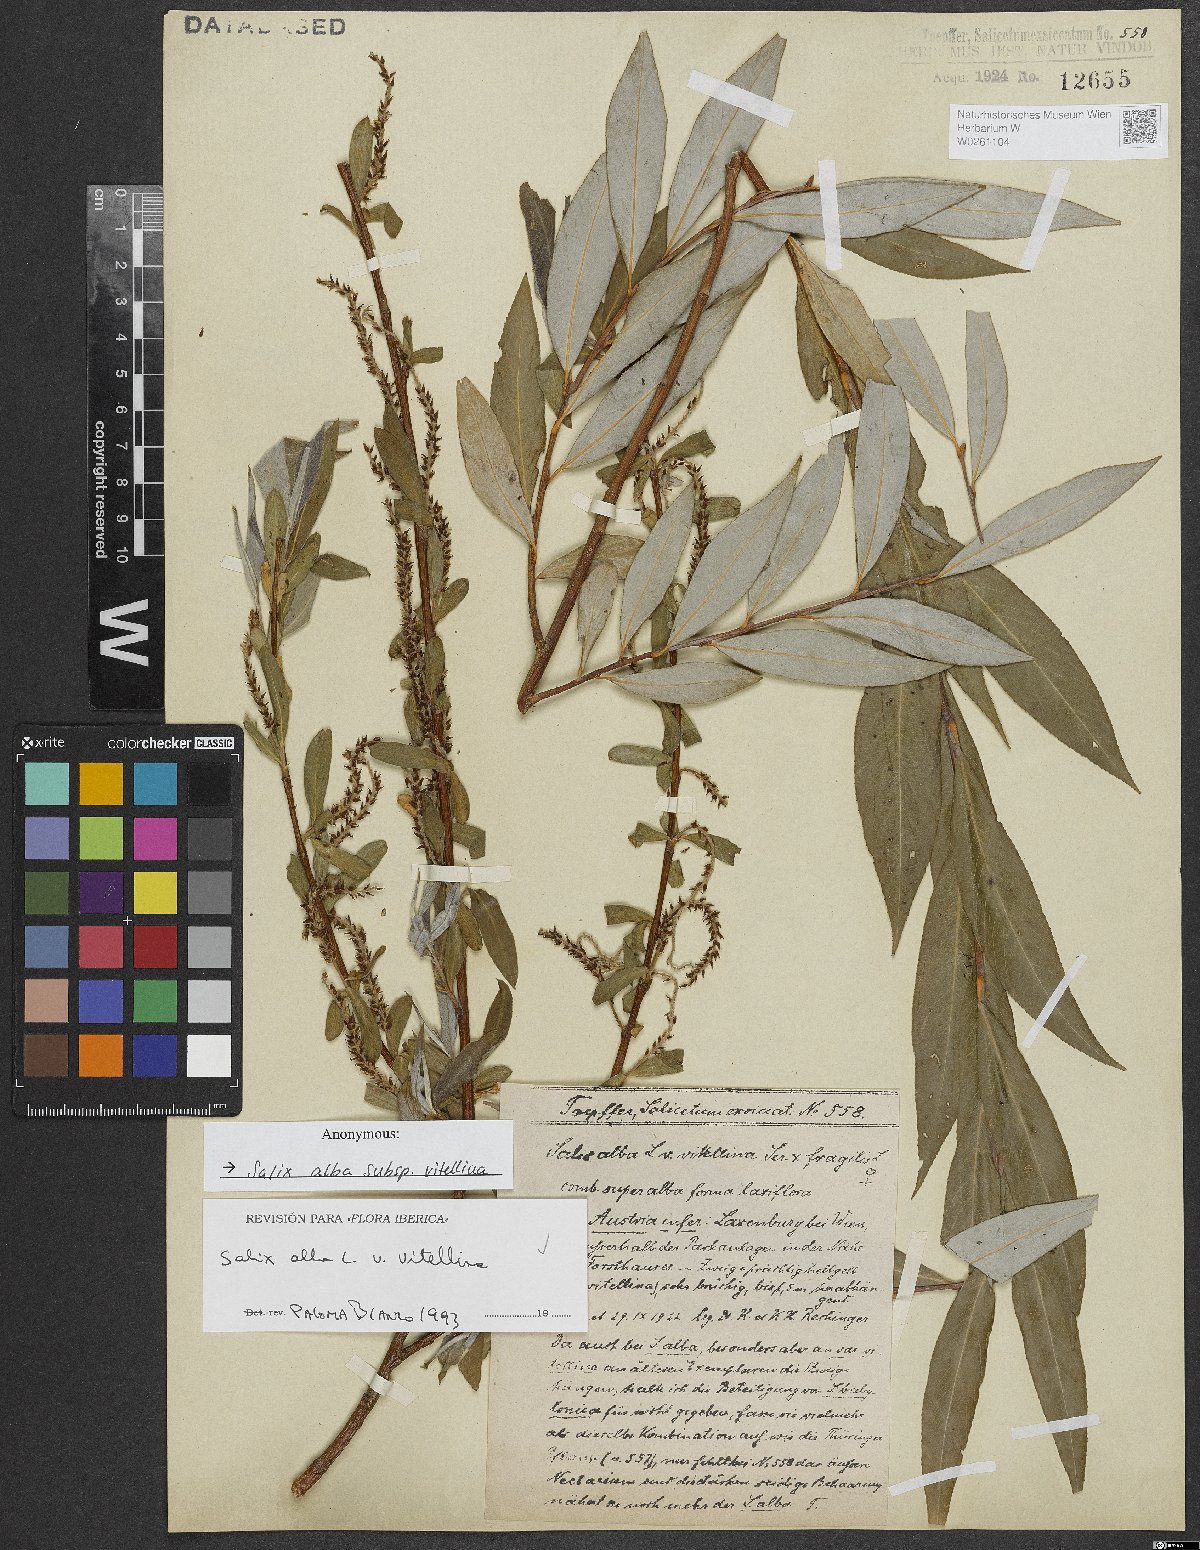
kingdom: Plantae
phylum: Tracheophyta
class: Magnoliopsida
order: Malpighiales
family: Salicaceae
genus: Salix
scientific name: Salix alba
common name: White willow
